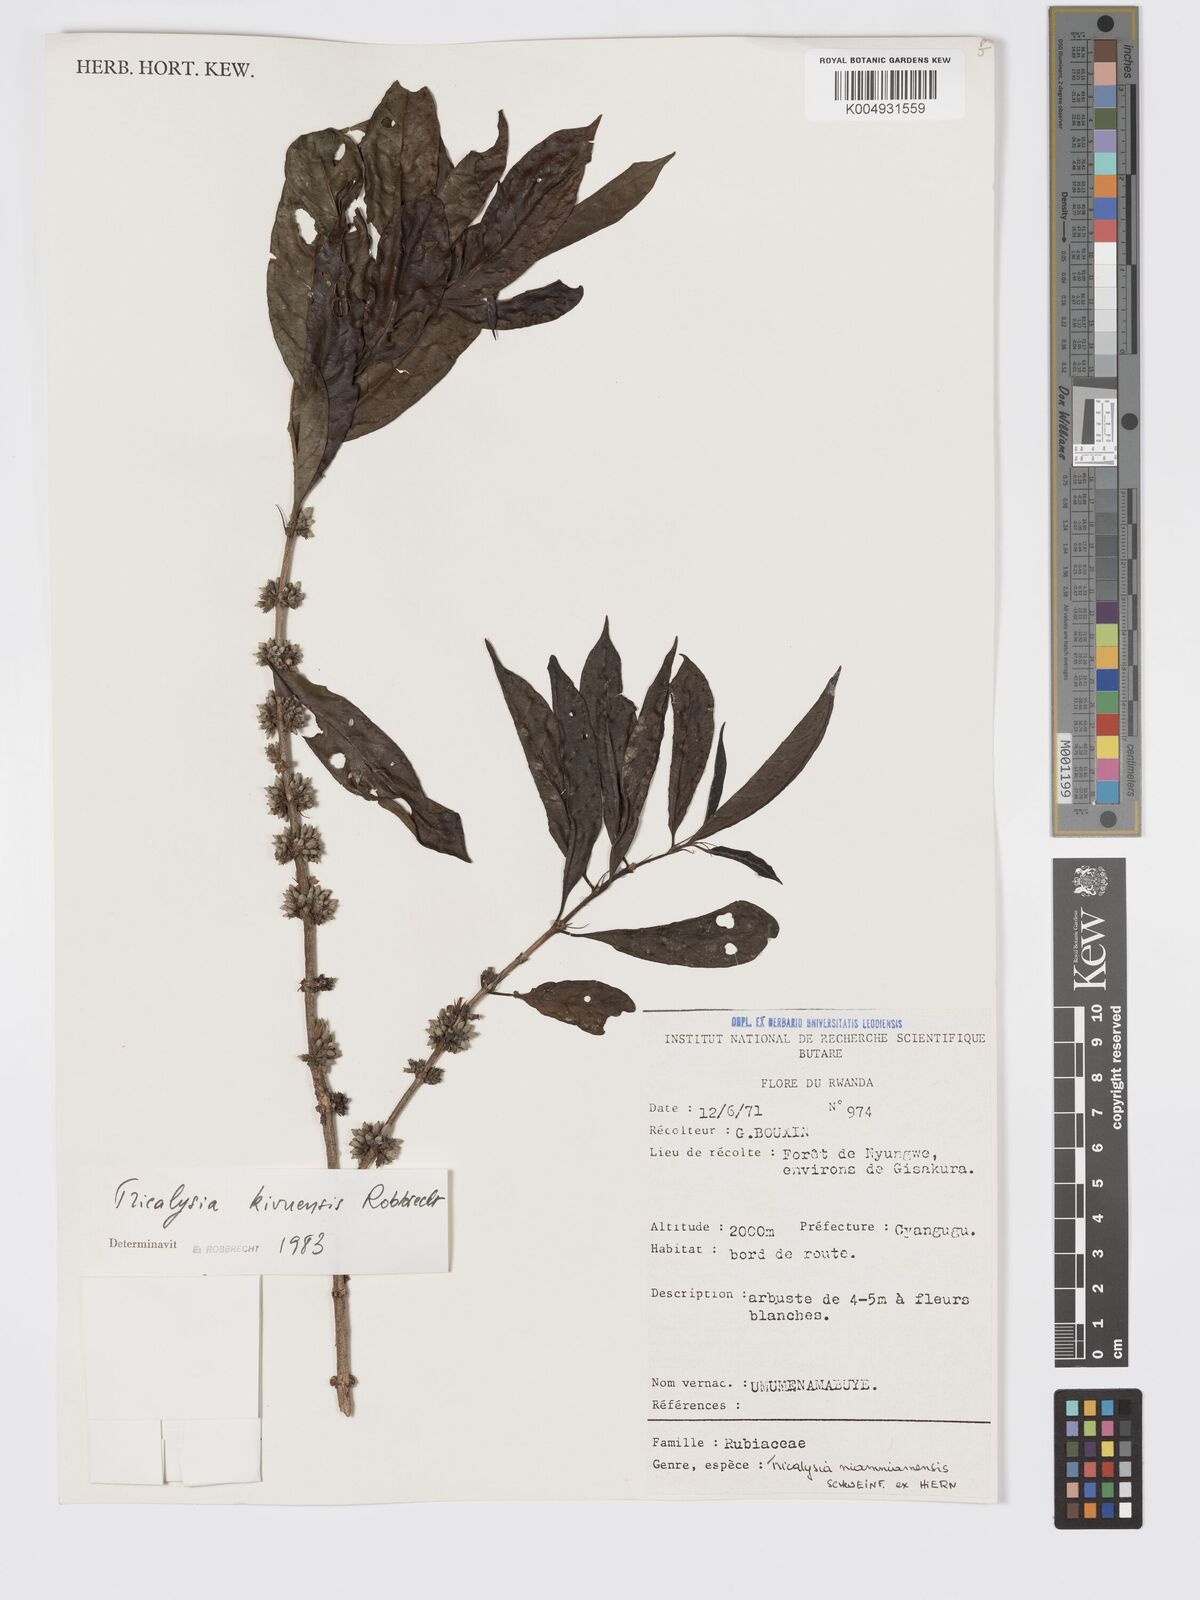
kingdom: Plantae
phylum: Tracheophyta
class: Magnoliopsida
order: Gentianales
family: Rubiaceae
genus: Tricalysia
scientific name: Tricalysia kivuensis
